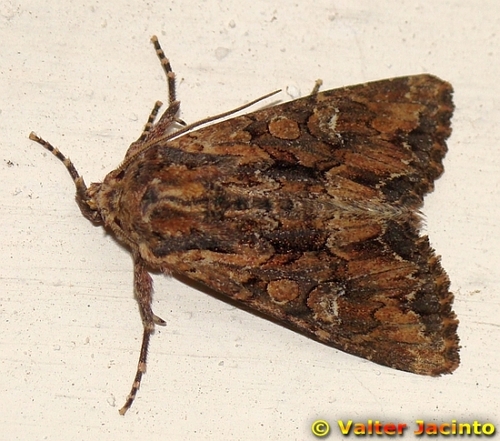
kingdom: Animalia
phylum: Arthropoda
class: Insecta
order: Lepidoptera
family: Noctuidae
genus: Mniotype
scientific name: Mniotype occidentalis
